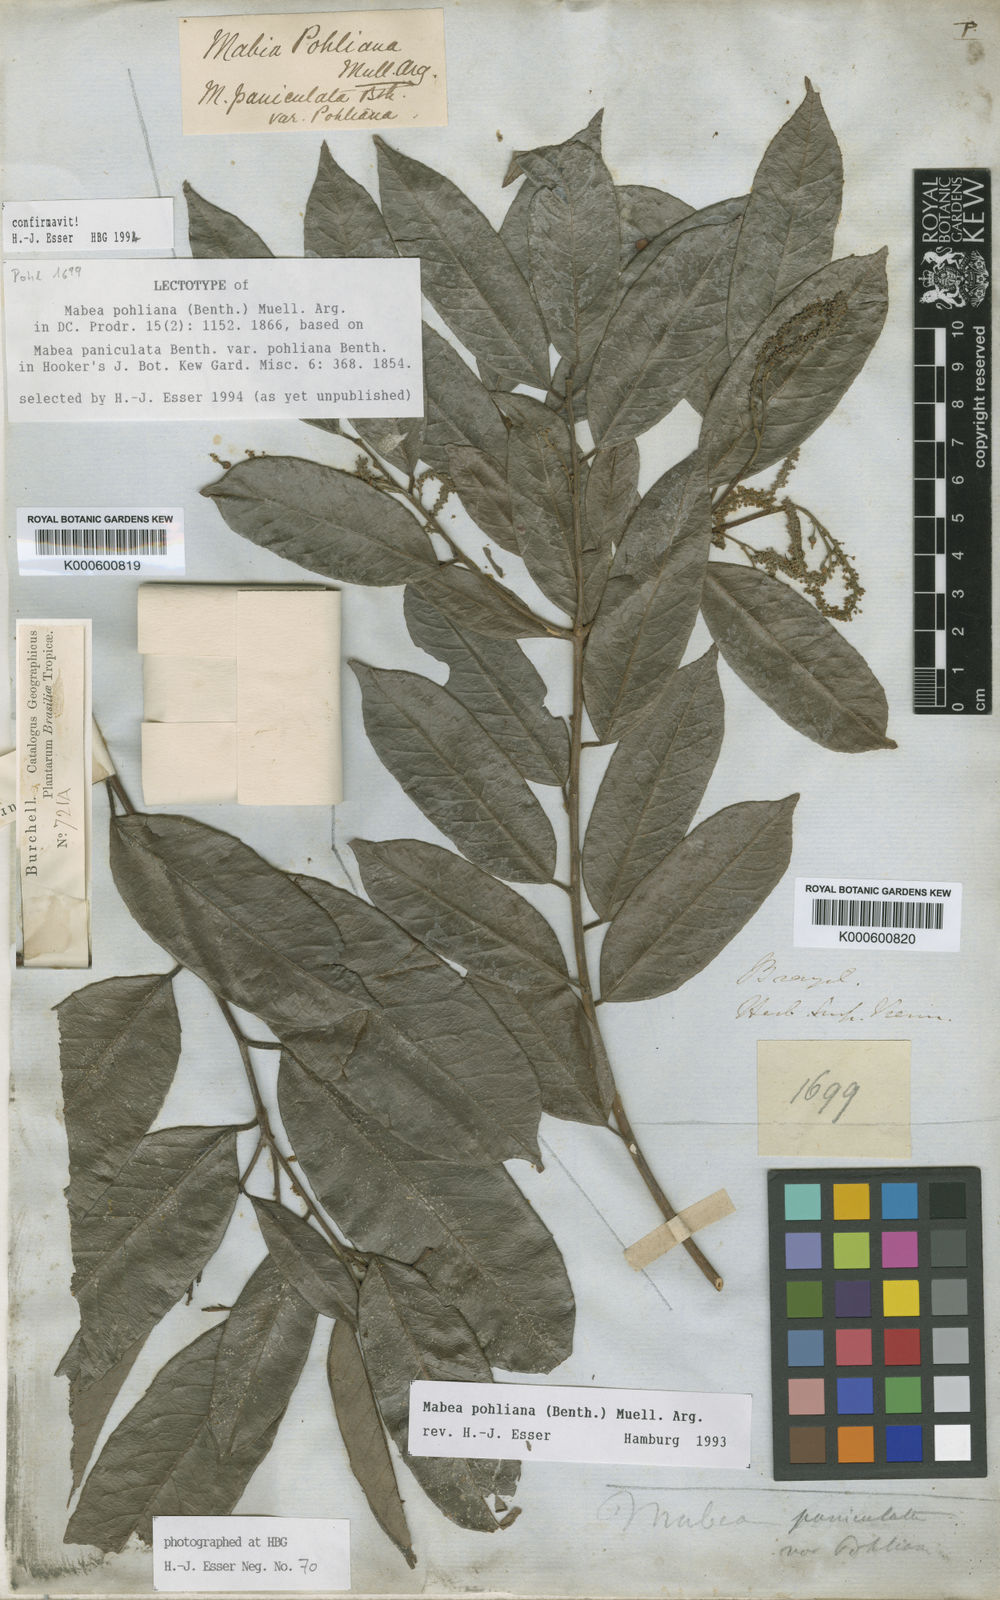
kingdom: Plantae
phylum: Tracheophyta
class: Magnoliopsida
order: Malpighiales
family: Euphorbiaceae
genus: Mabea
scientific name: Mabea
